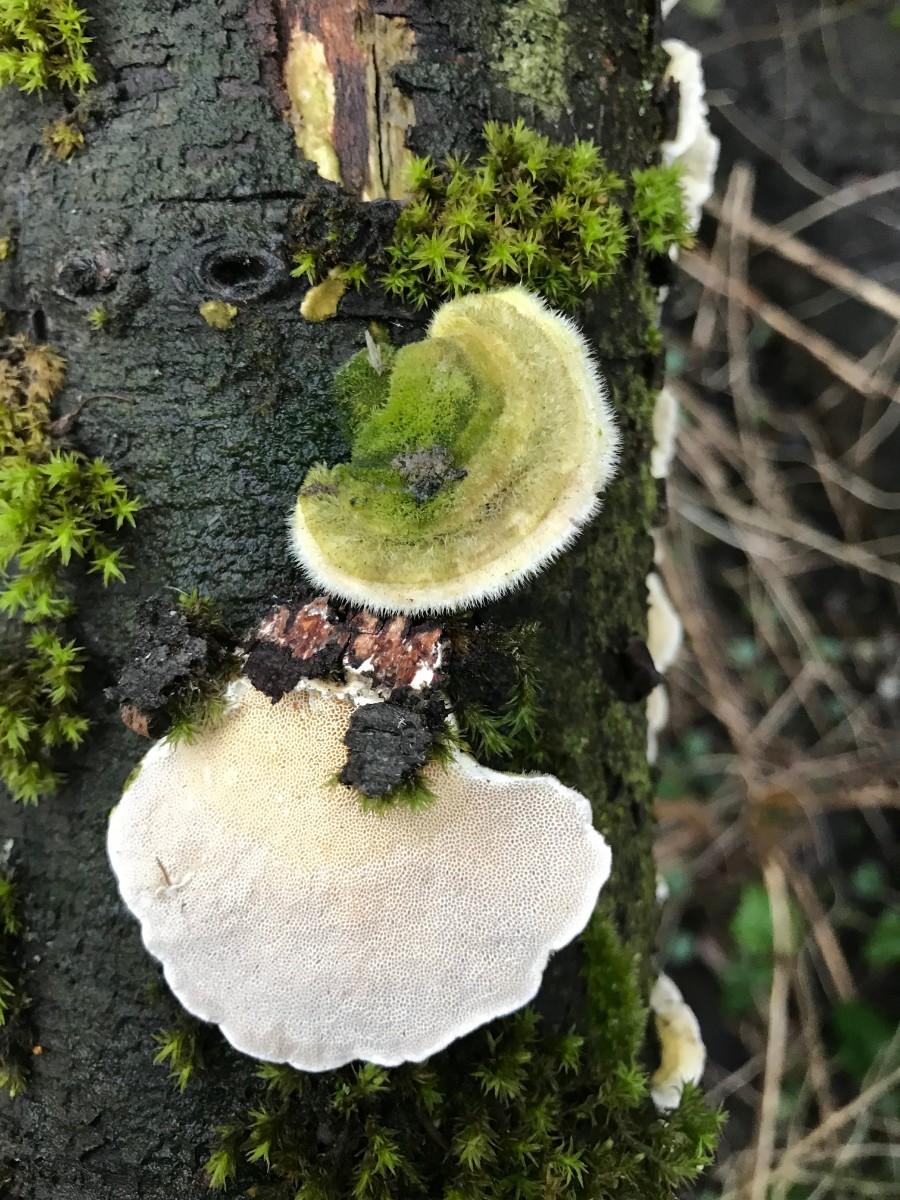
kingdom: Fungi
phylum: Basidiomycota
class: Agaricomycetes
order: Polyporales
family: Polyporaceae
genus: Trametes
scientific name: Trametes hirsuta
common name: håret læderporesvamp
